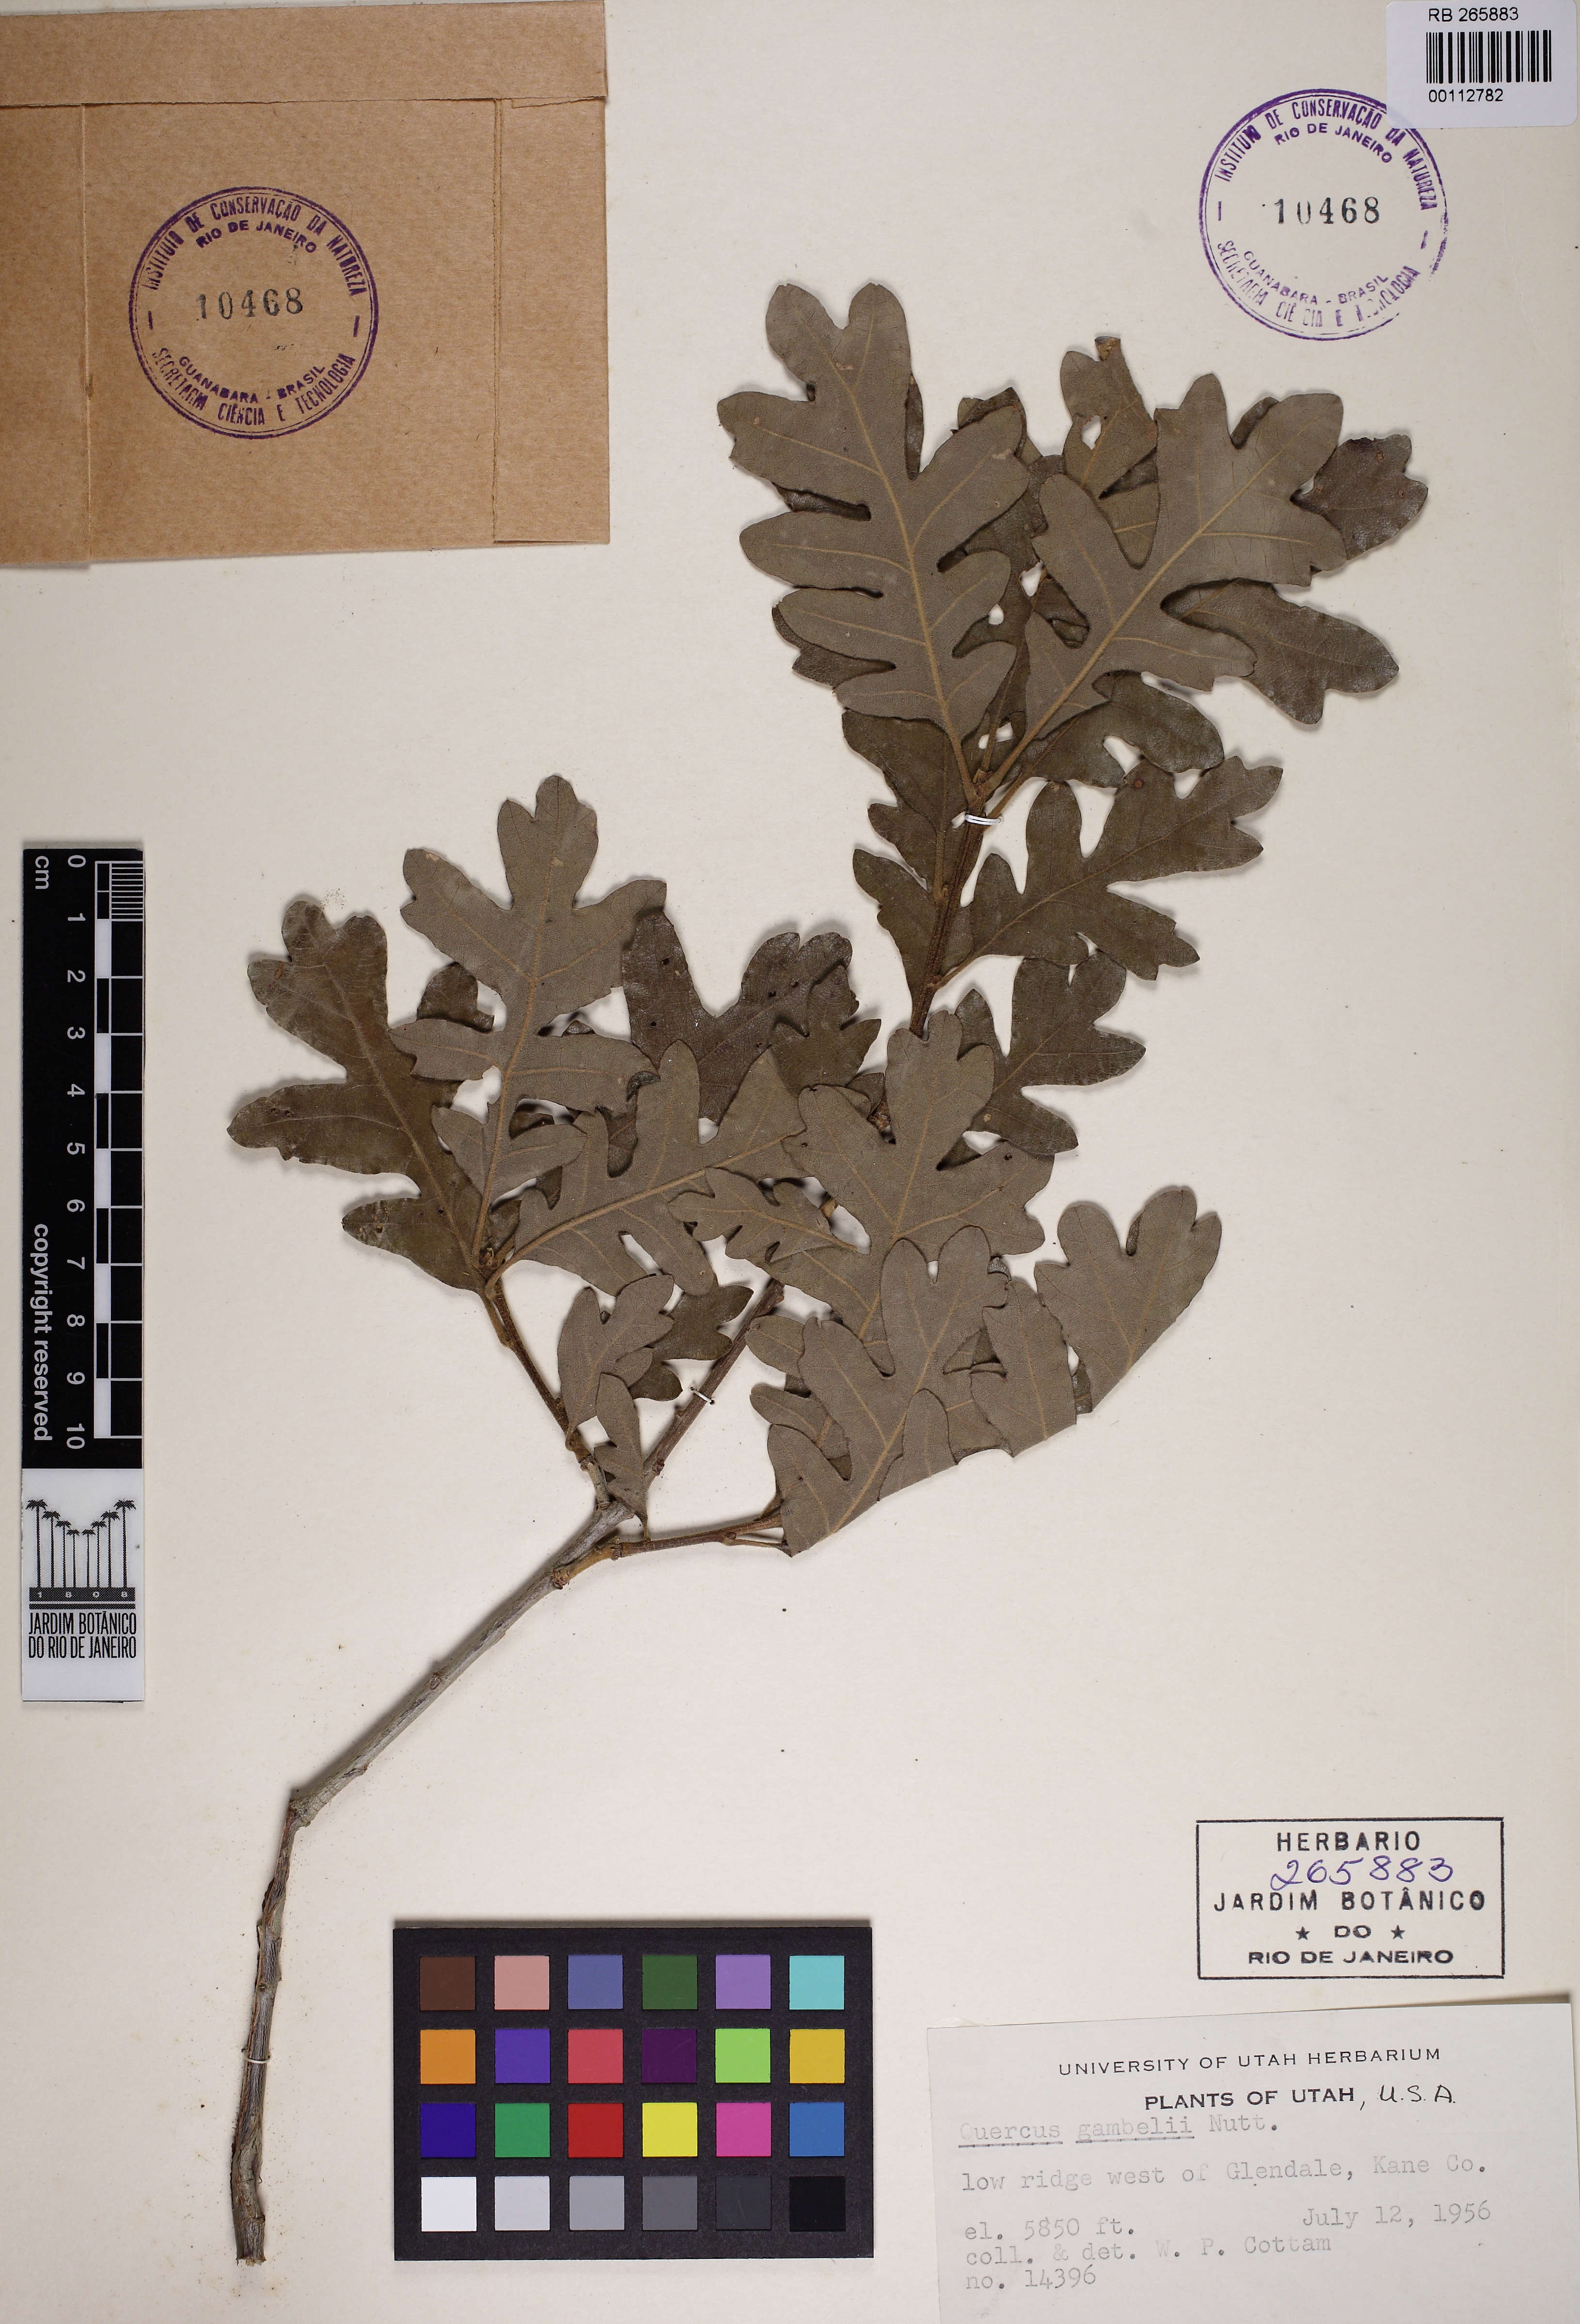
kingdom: Plantae
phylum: Tracheophyta
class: Magnoliopsida
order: Fagales
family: Fagaceae
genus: Quercus
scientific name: Quercus gambelii
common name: Gambel oak
